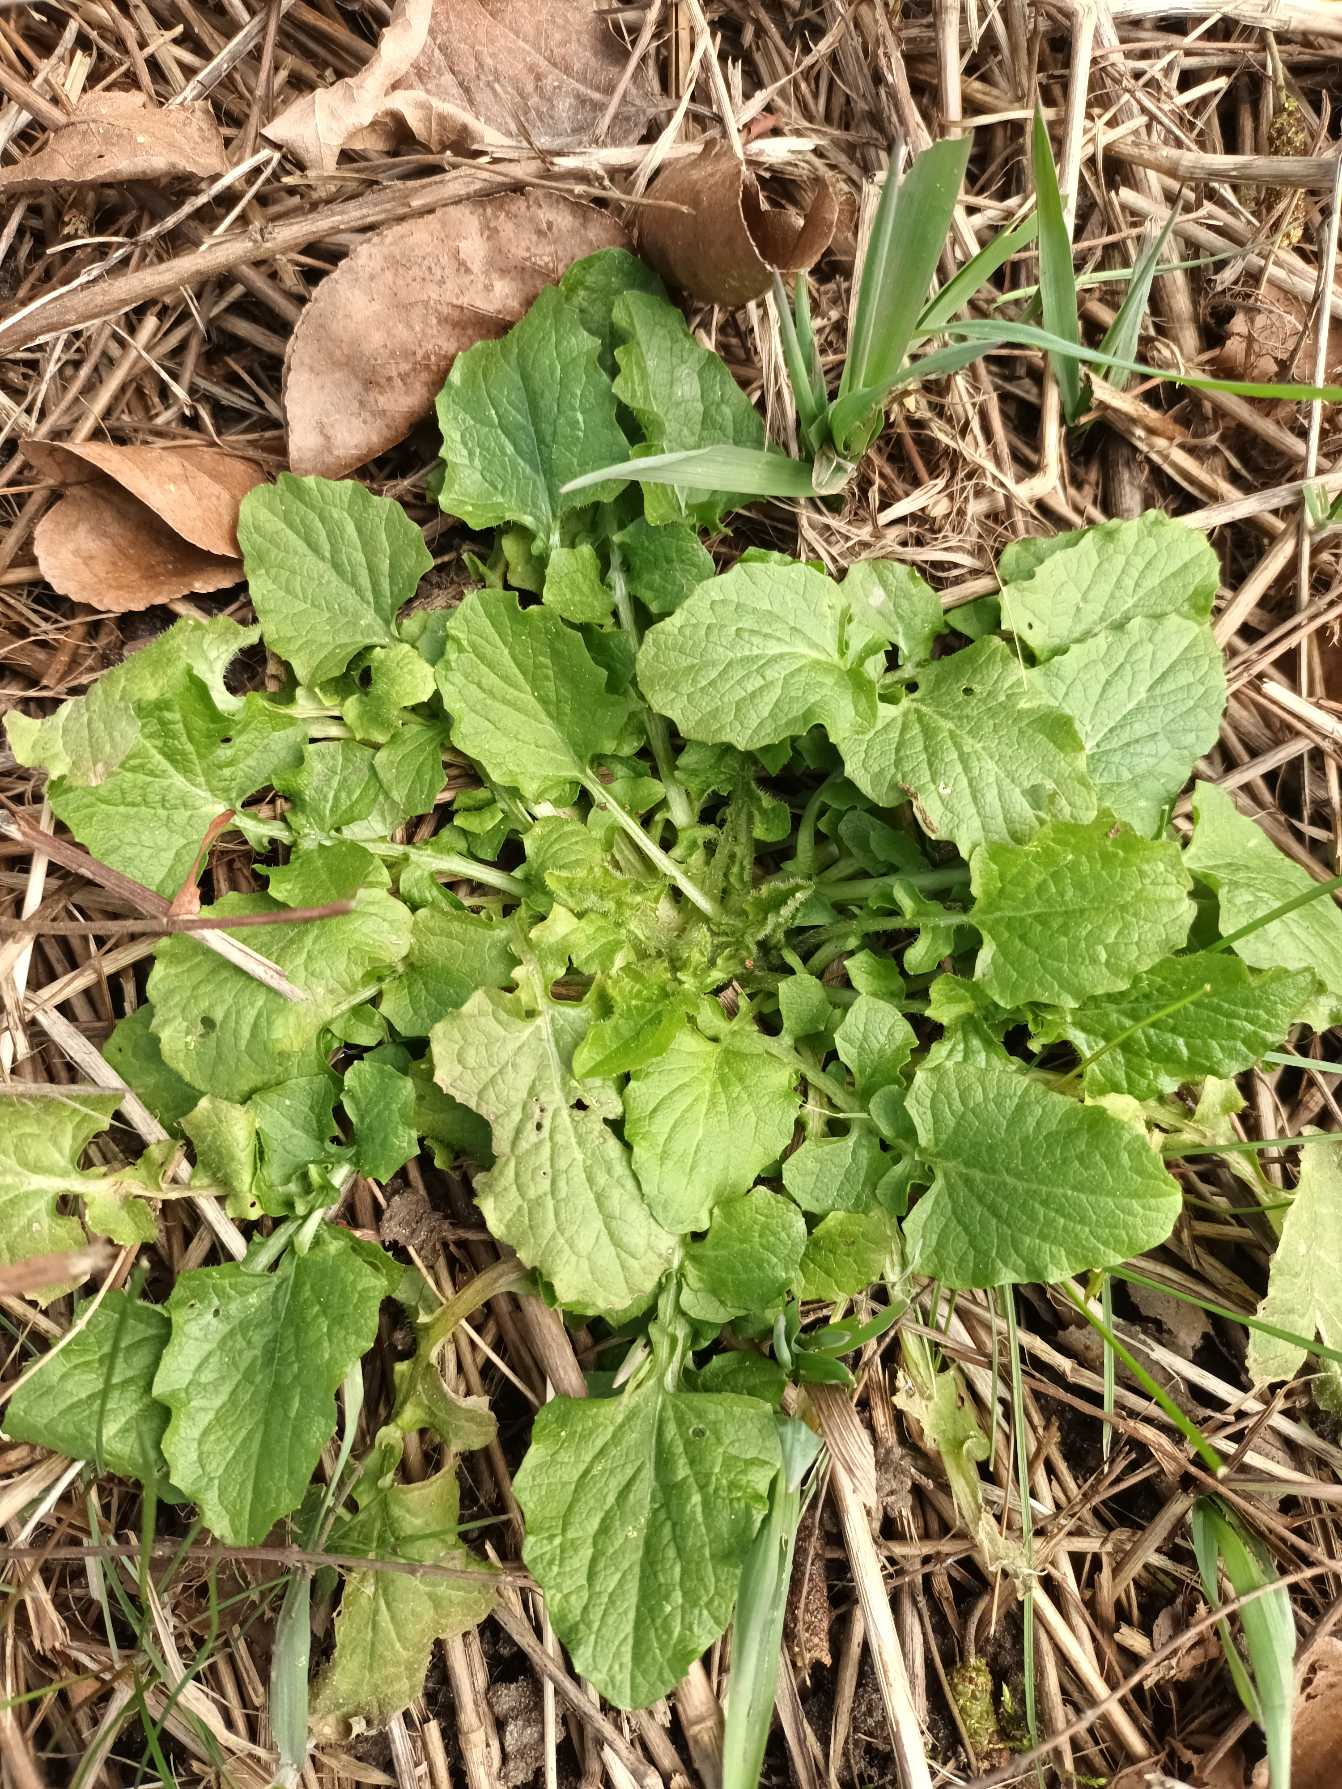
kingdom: Plantae
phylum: Tracheophyta
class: Magnoliopsida
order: Asterales
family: Asteraceae
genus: Lapsana
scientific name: Lapsana communis
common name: Haremad
